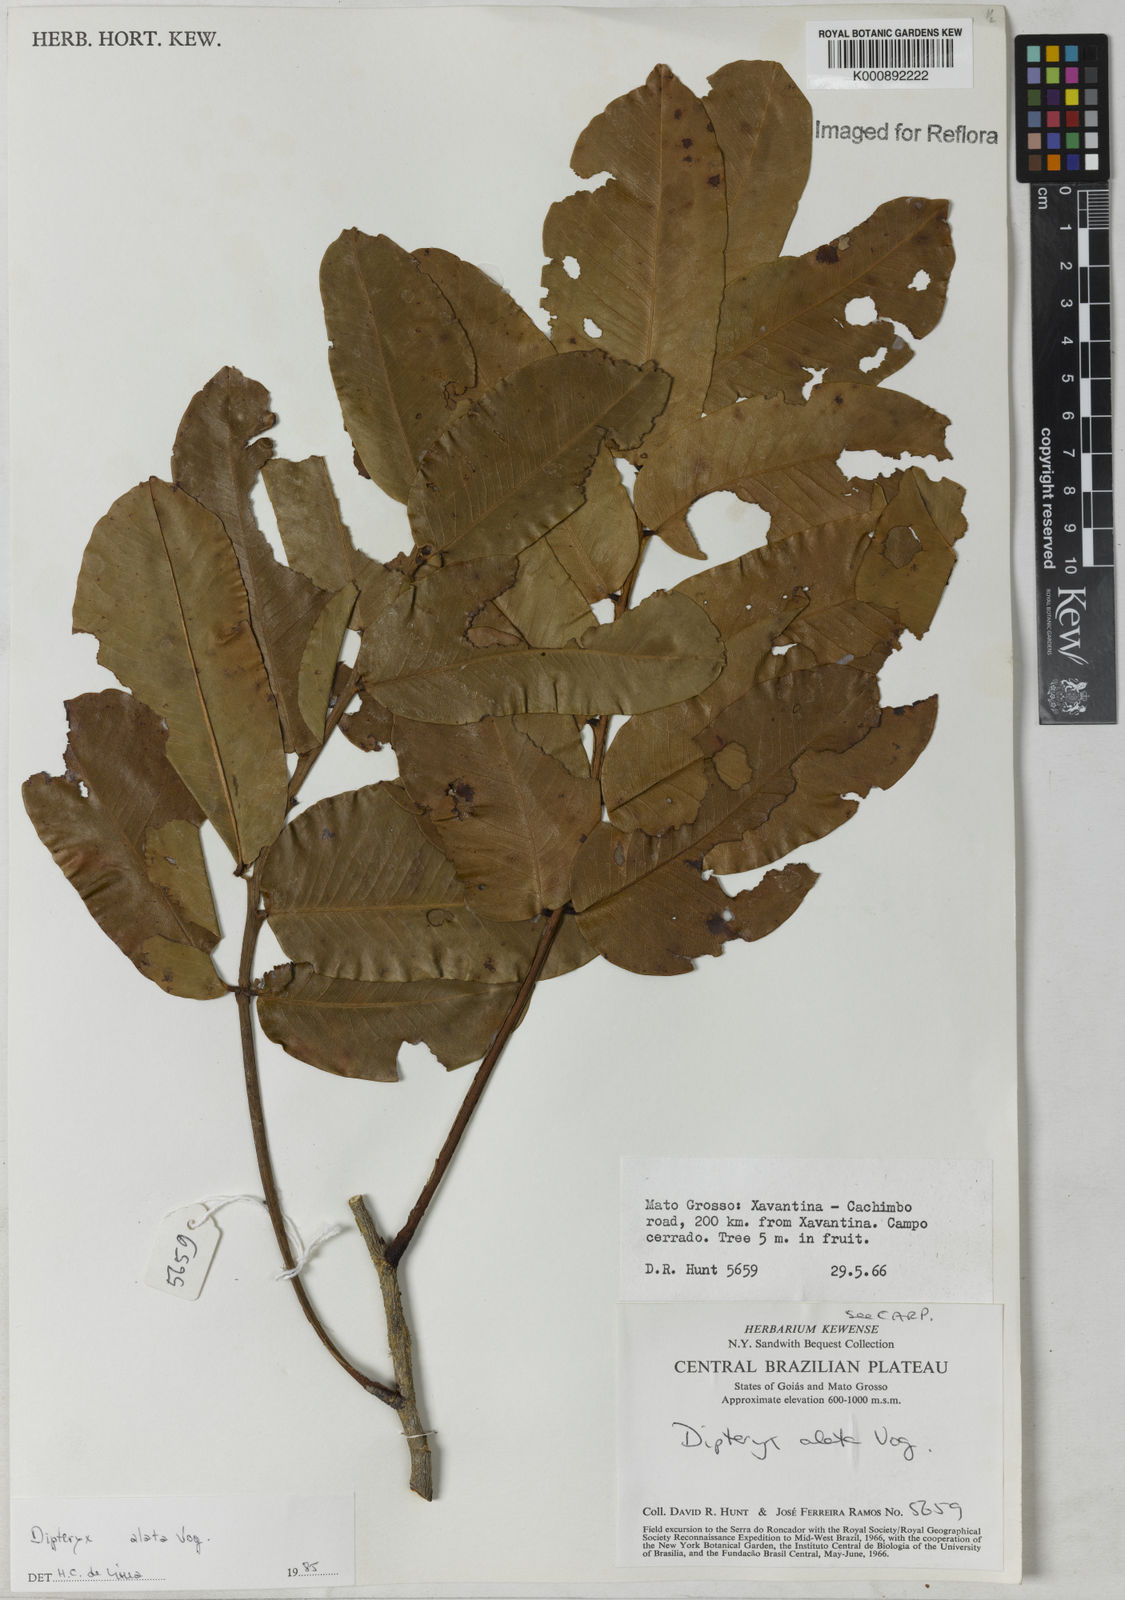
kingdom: Plantae
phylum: Tracheophyta
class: Magnoliopsida
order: Fabales
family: Fabaceae
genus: Dipteryx
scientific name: Dipteryx alata
